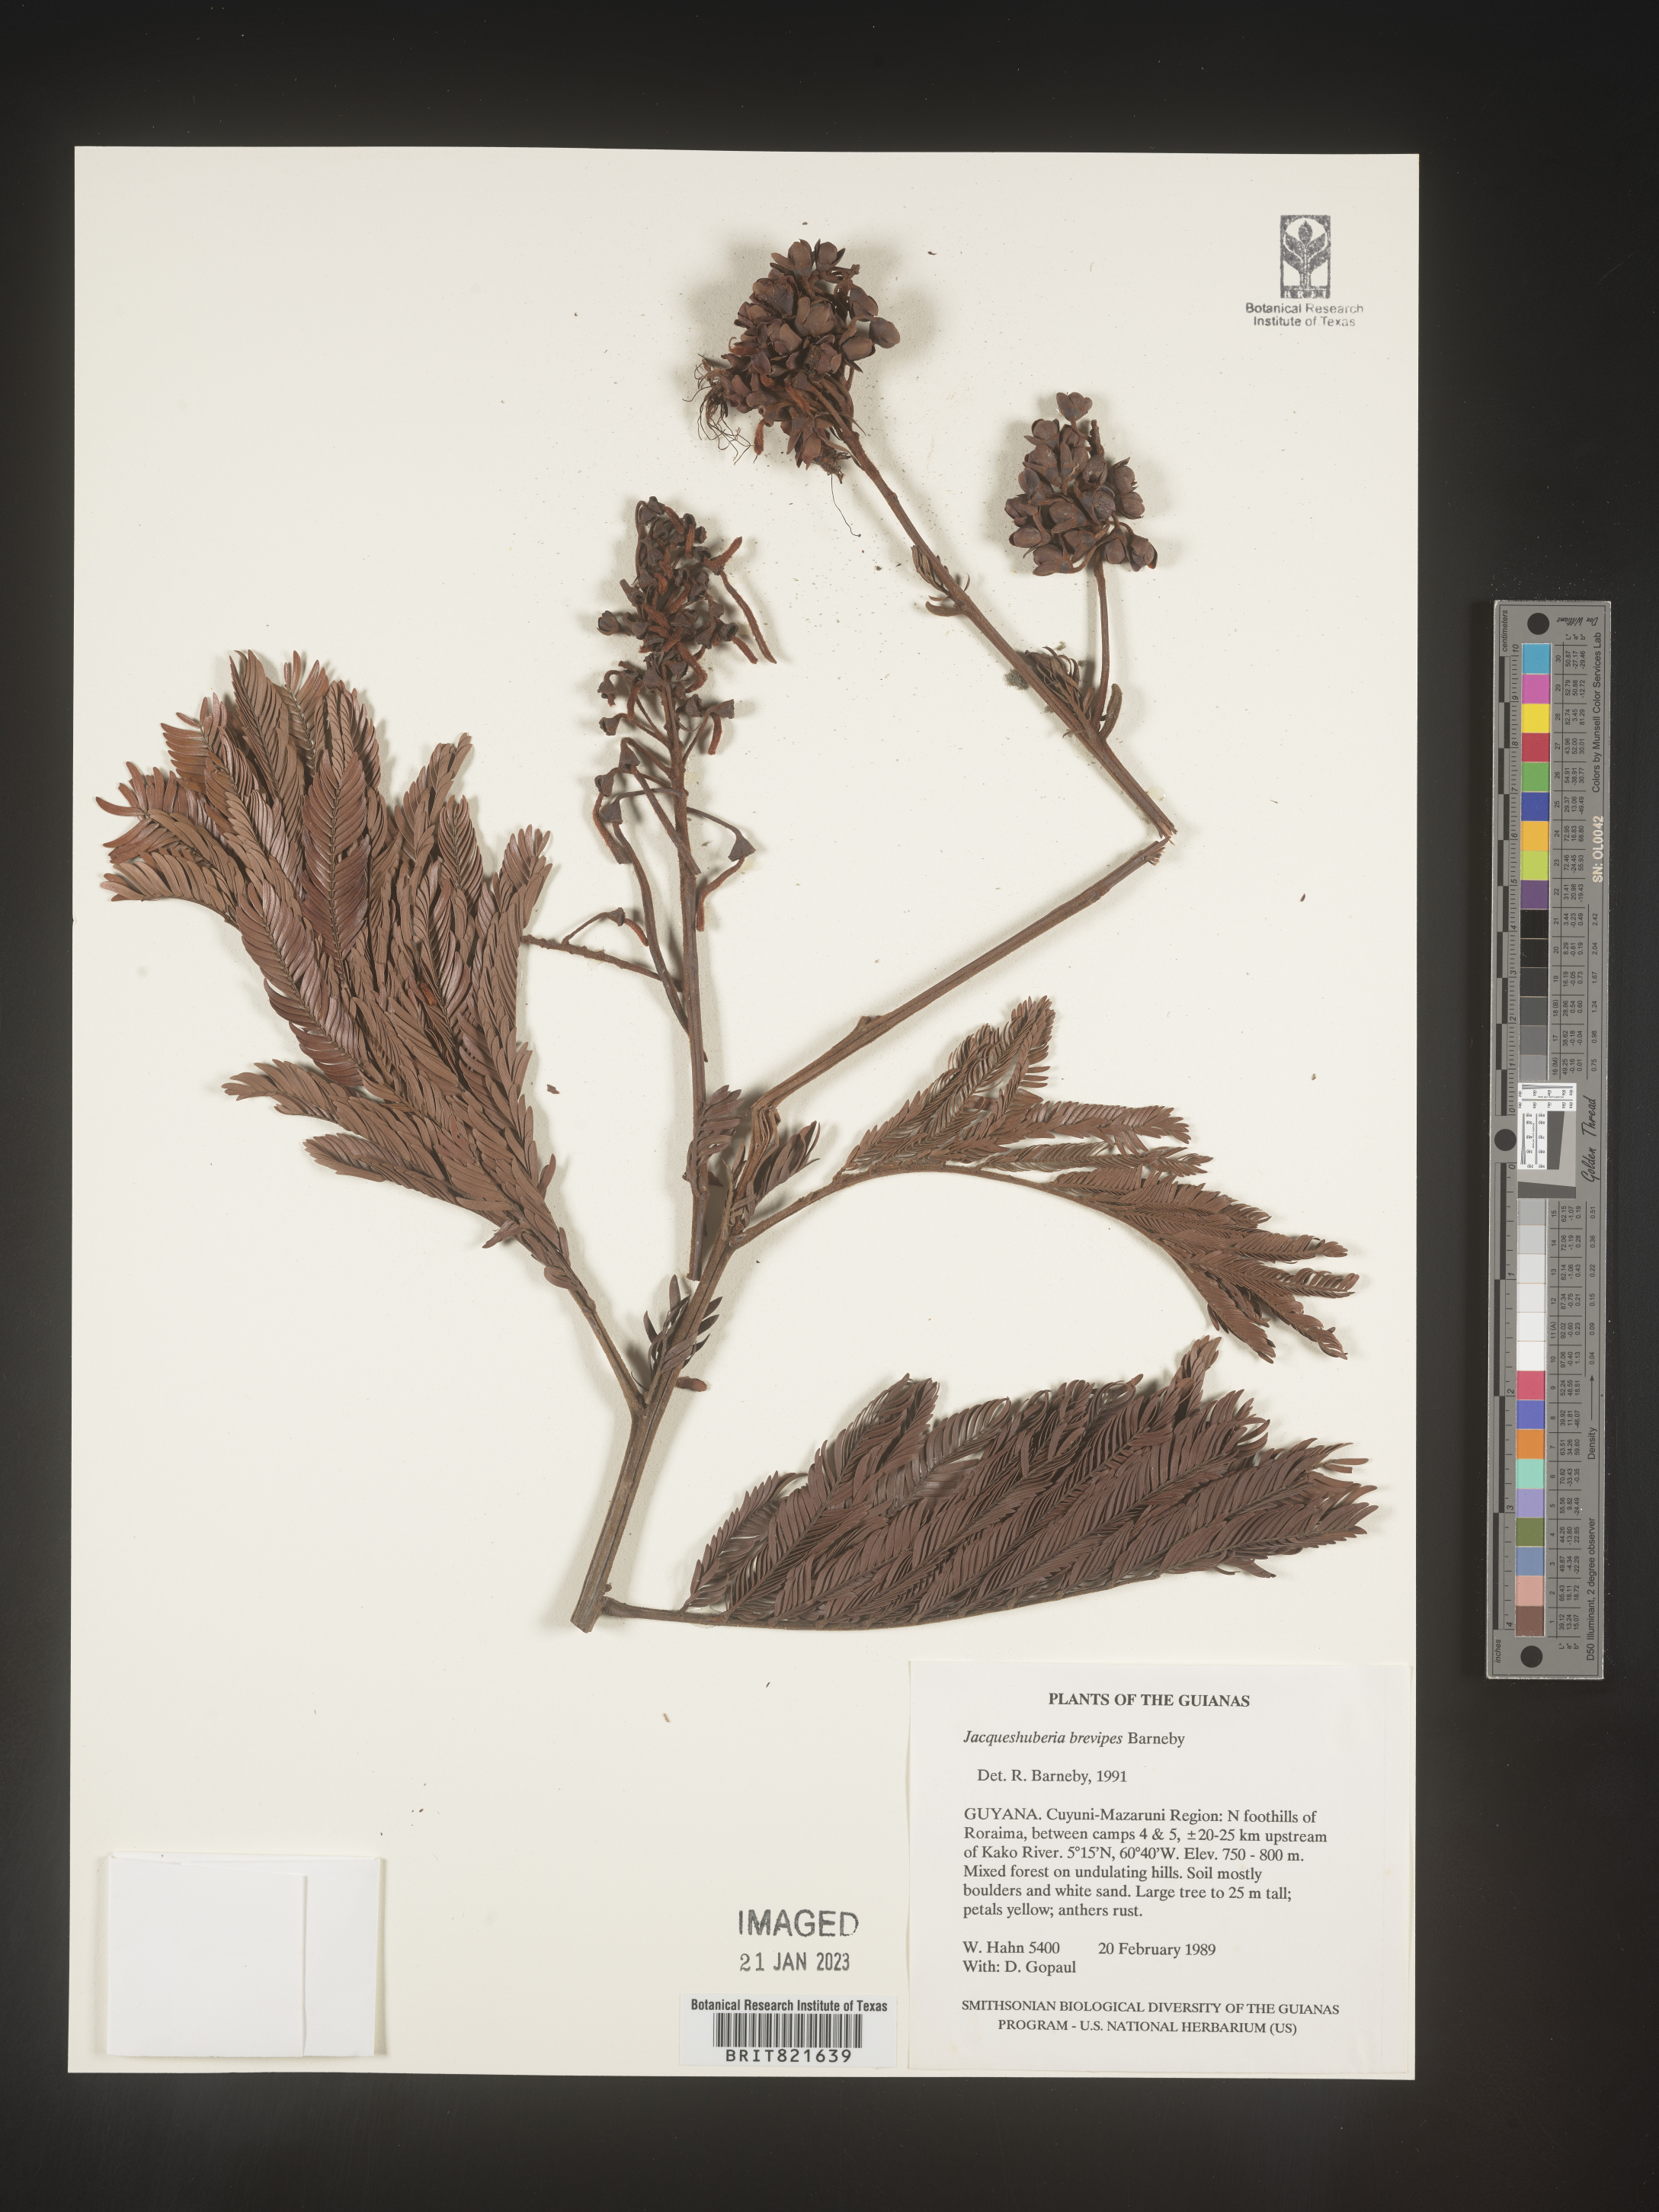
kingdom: Plantae
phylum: Tracheophyta
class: Magnoliopsida
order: Fabales
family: Fabaceae
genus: Jacqueshuberia
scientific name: Jacqueshuberia
